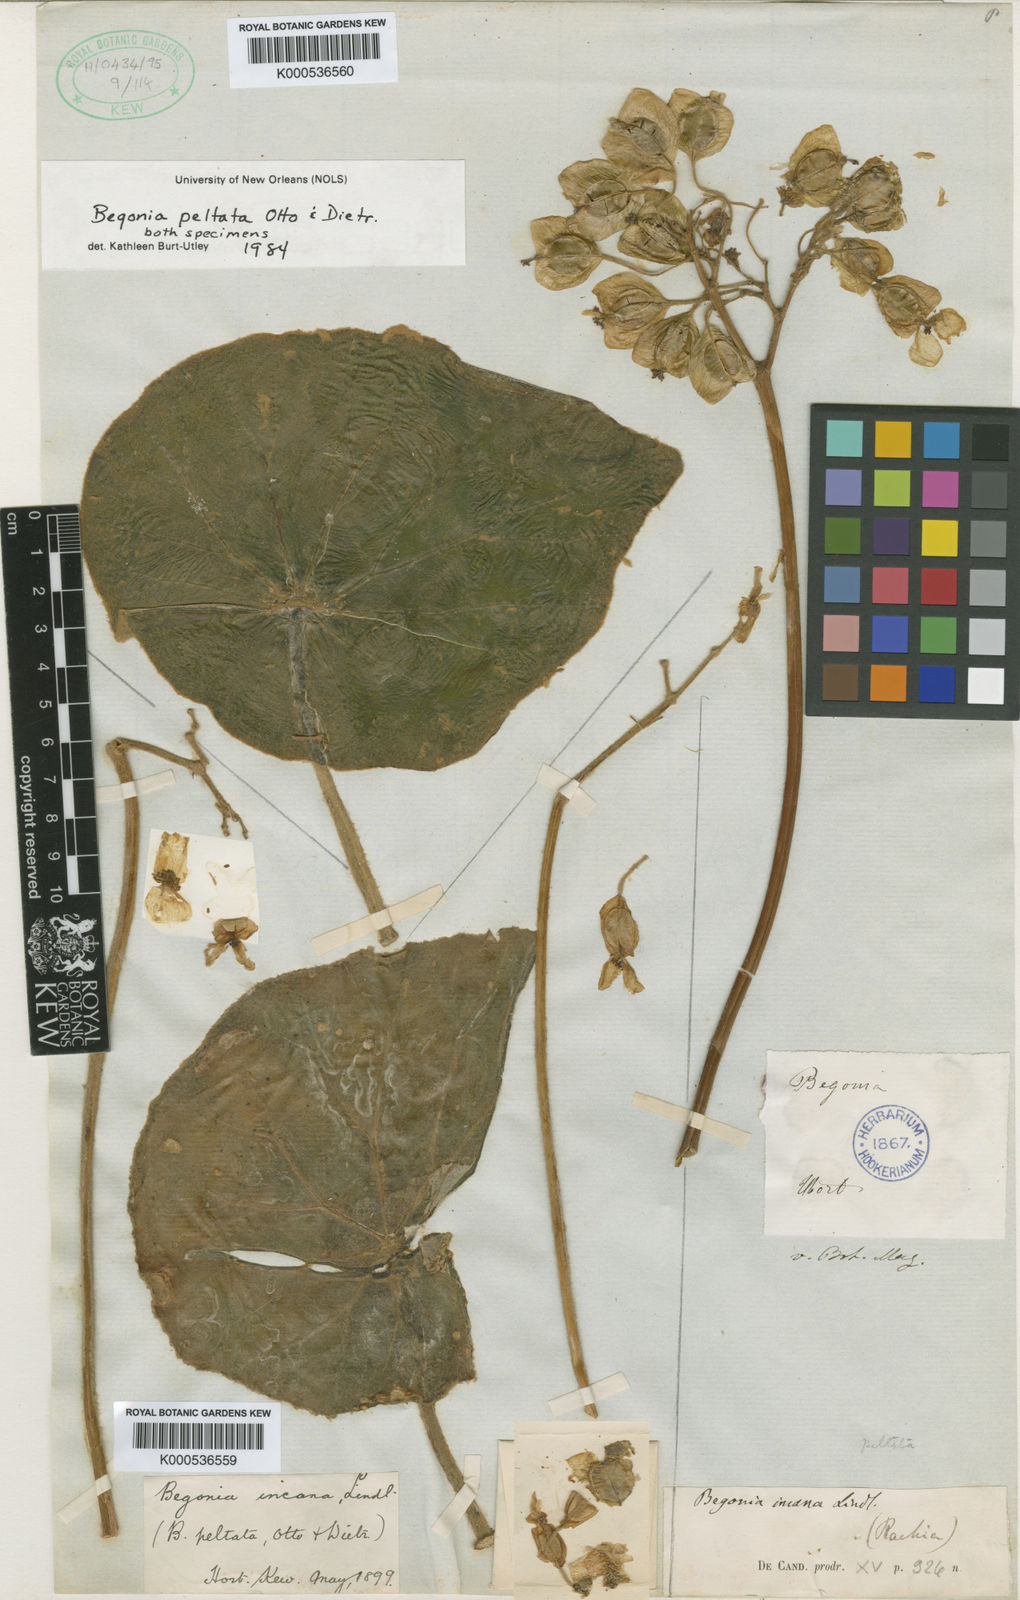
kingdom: Plantae
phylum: Tracheophyta
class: Magnoliopsida
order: Cucurbitales
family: Begoniaceae
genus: Begonia
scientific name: Begonia peltata
